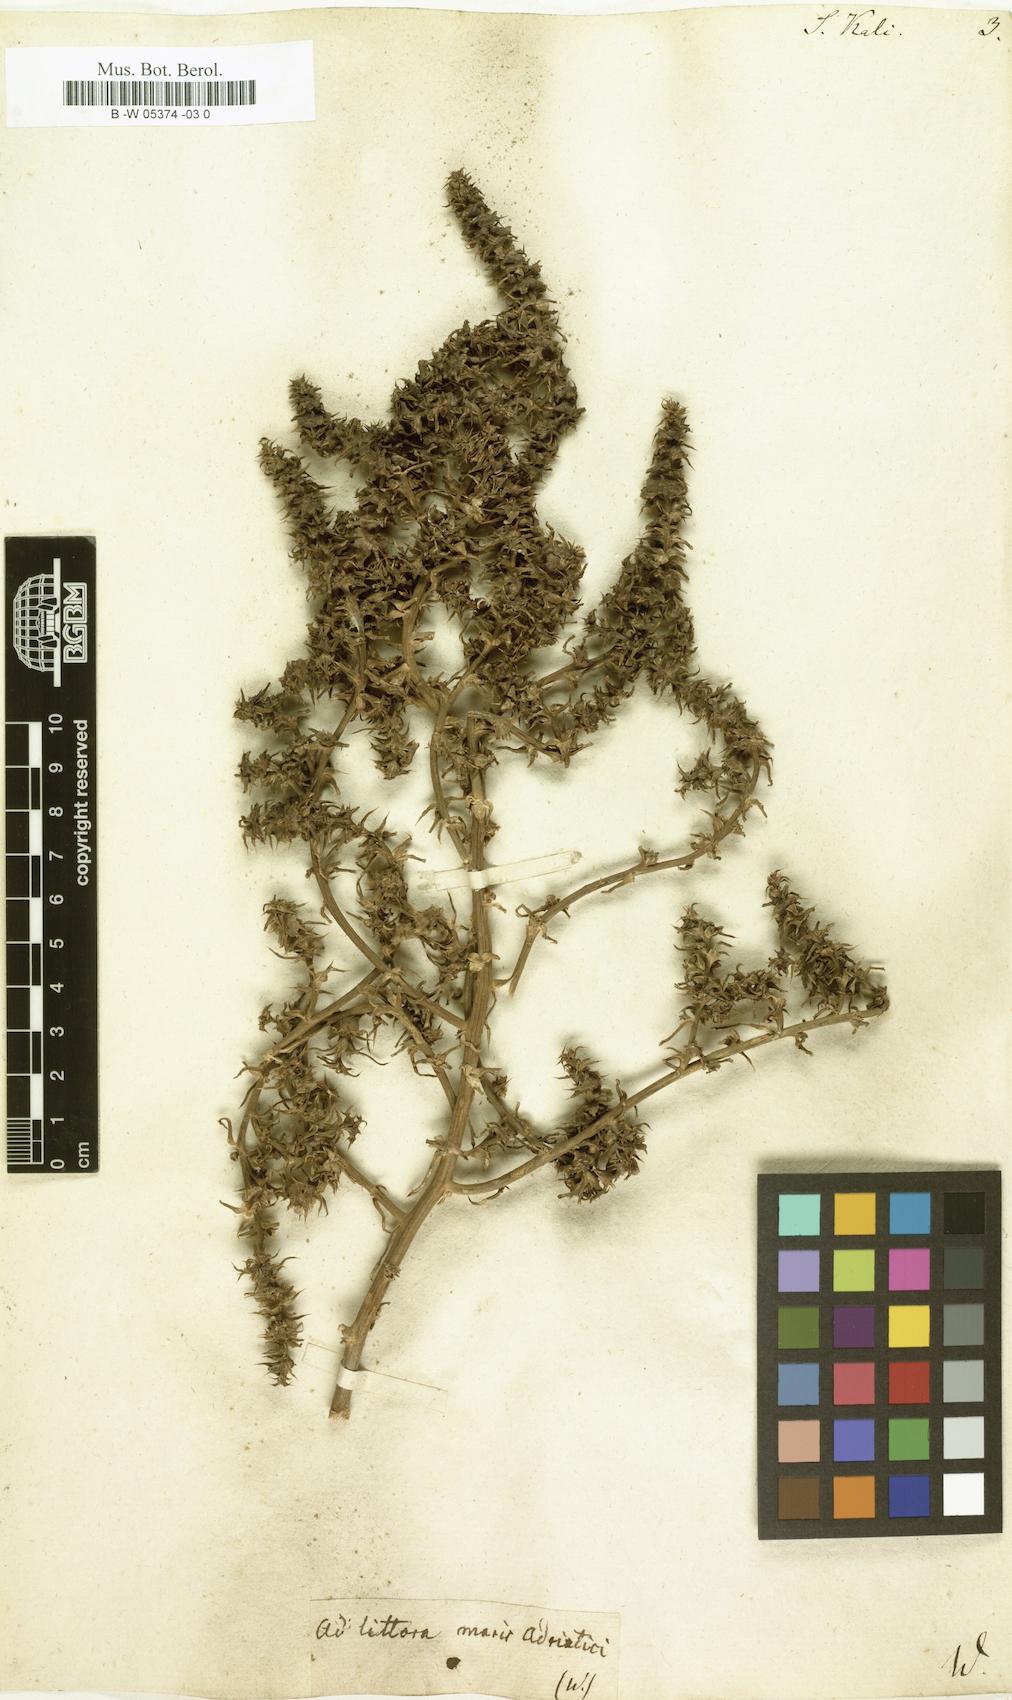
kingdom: Plantae
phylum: Tracheophyta
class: Magnoliopsida
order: Caryophyllales
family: Amaranthaceae
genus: Salsola
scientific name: Salsola kali
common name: Saltwort
